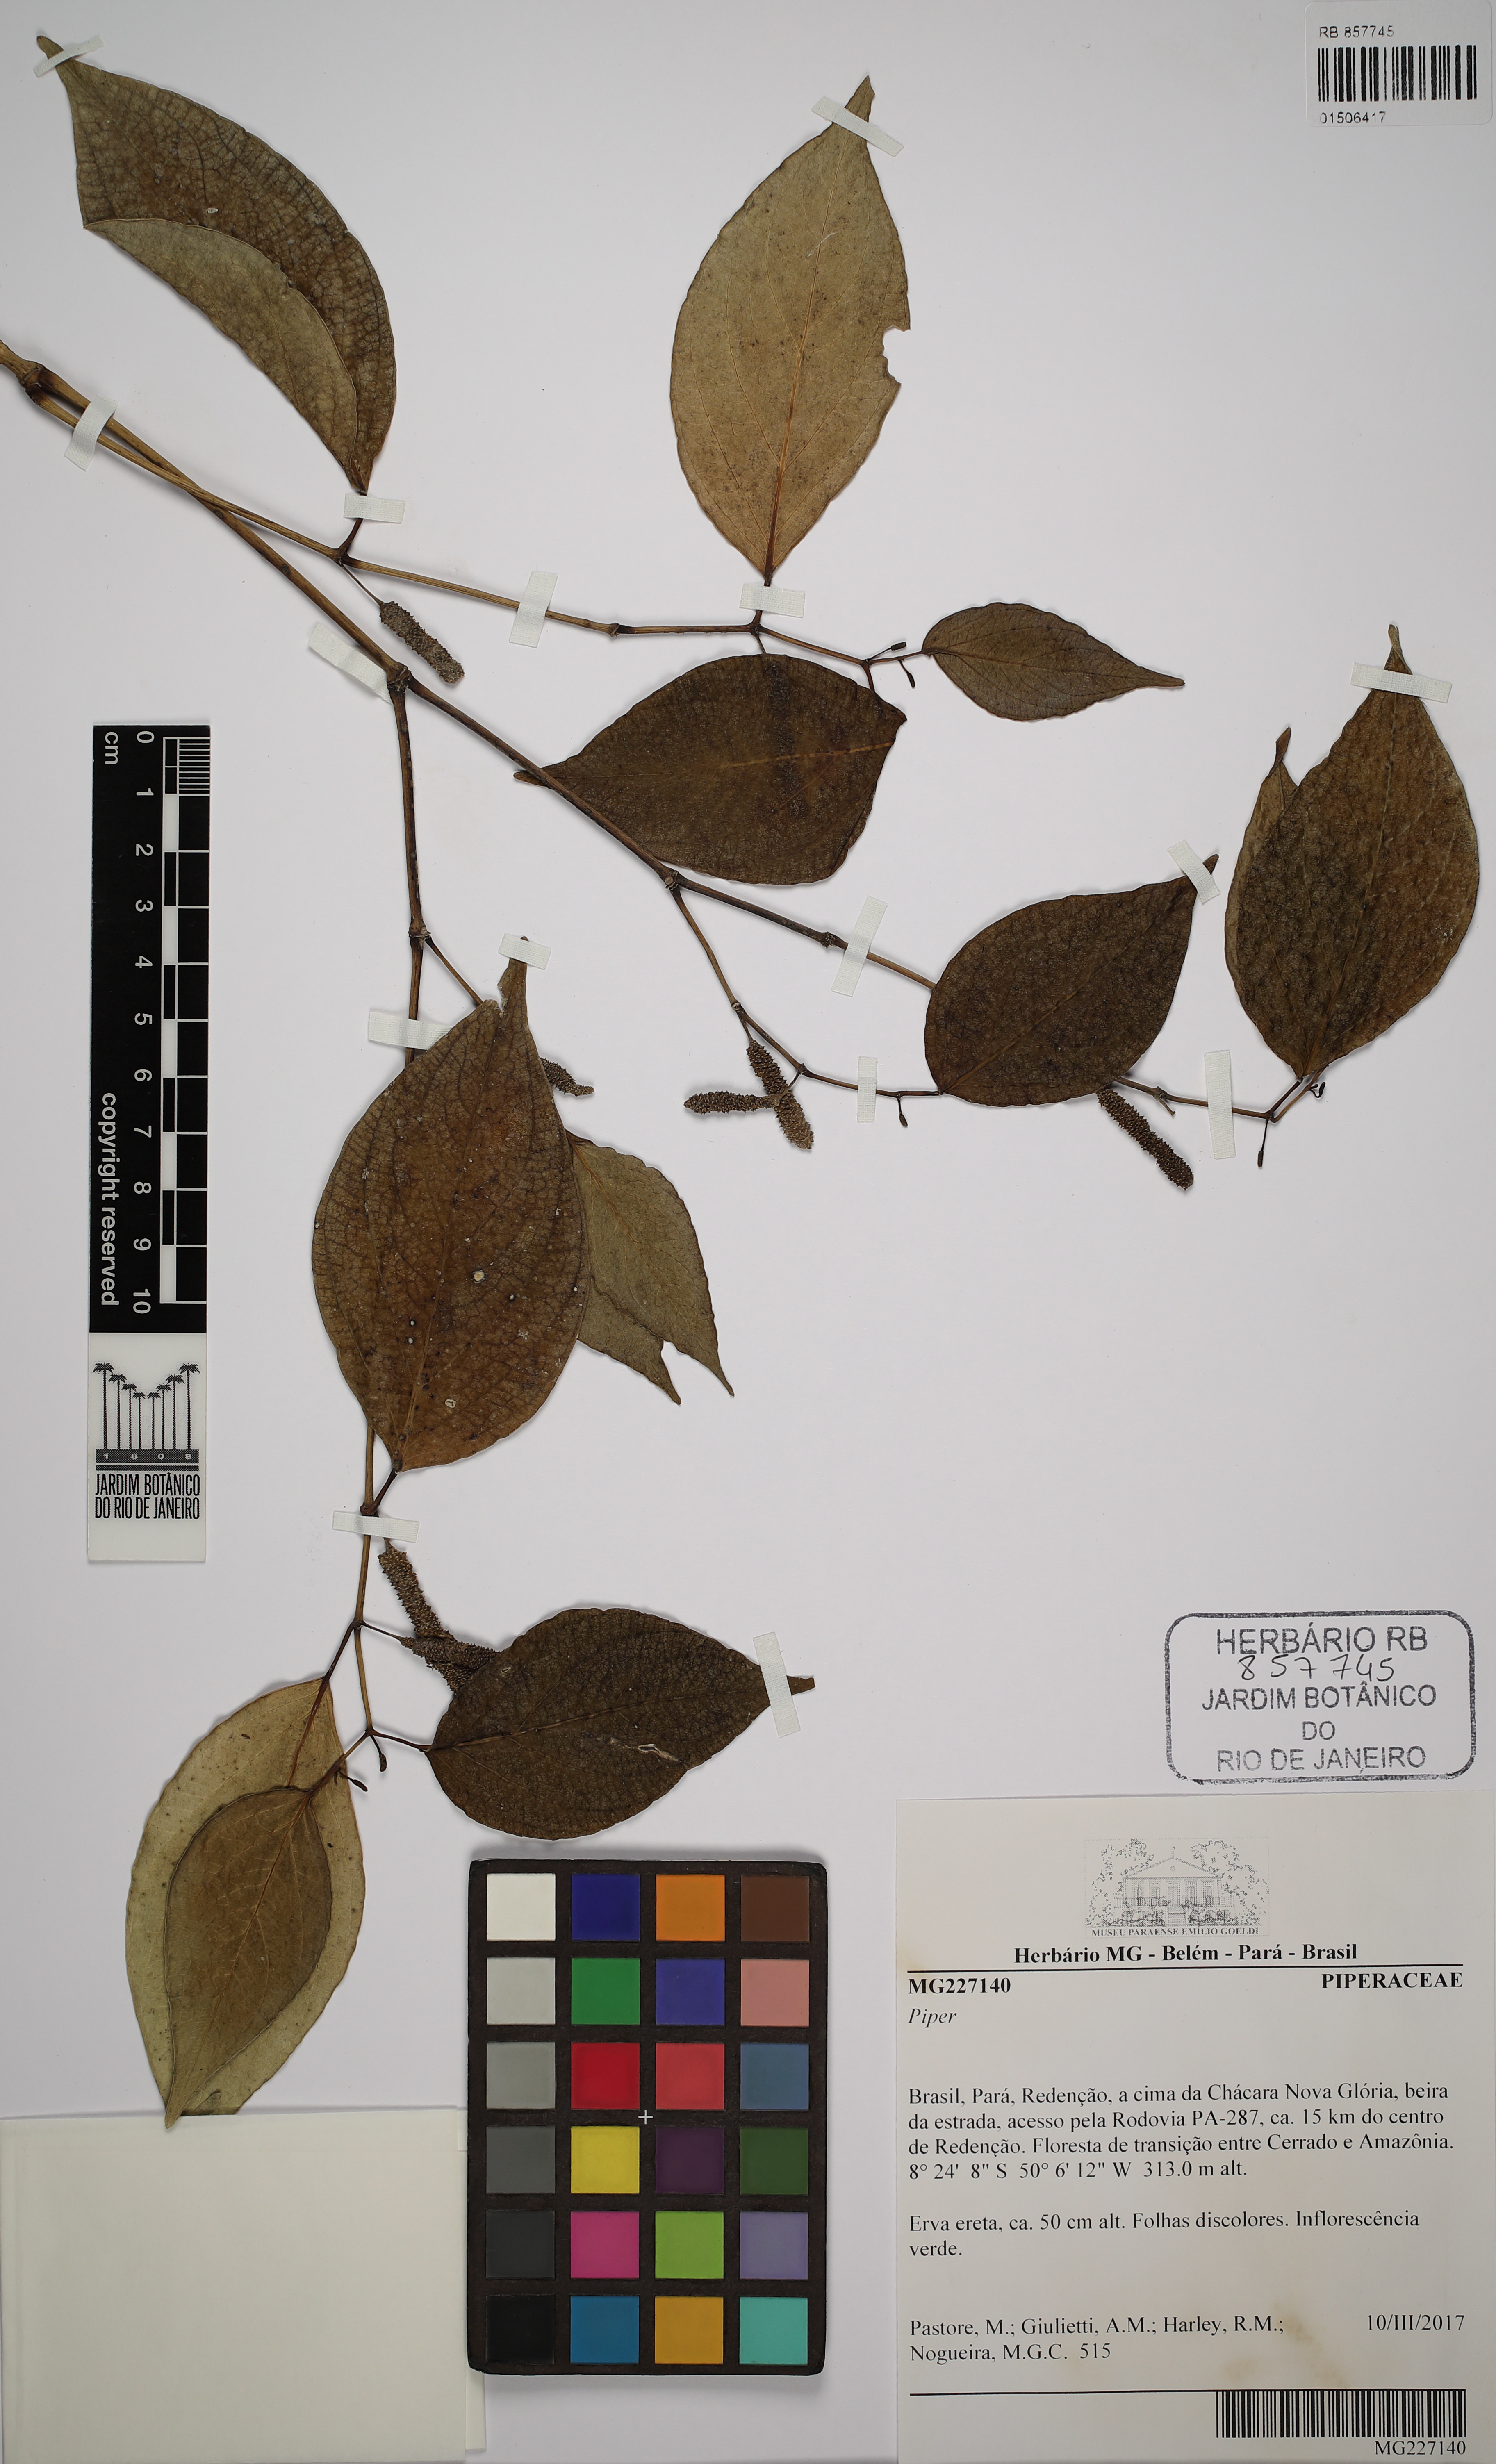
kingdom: Plantae
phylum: Tracheophyta
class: Magnoliopsida
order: Piperales
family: Piperaceae
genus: Piper
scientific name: Piper
